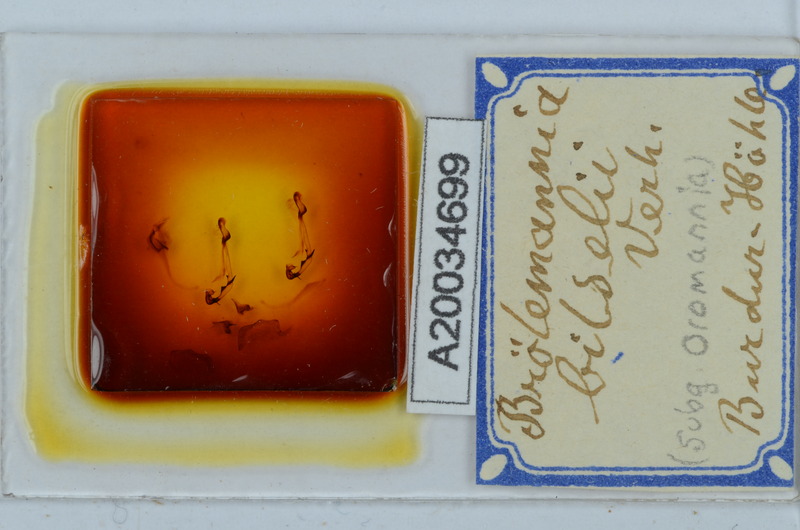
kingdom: Animalia
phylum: Arthropoda
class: Diplopoda
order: Callipodida
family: Schizopetalidae
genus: Eurygyrus
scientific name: Eurygyrus bilselii
